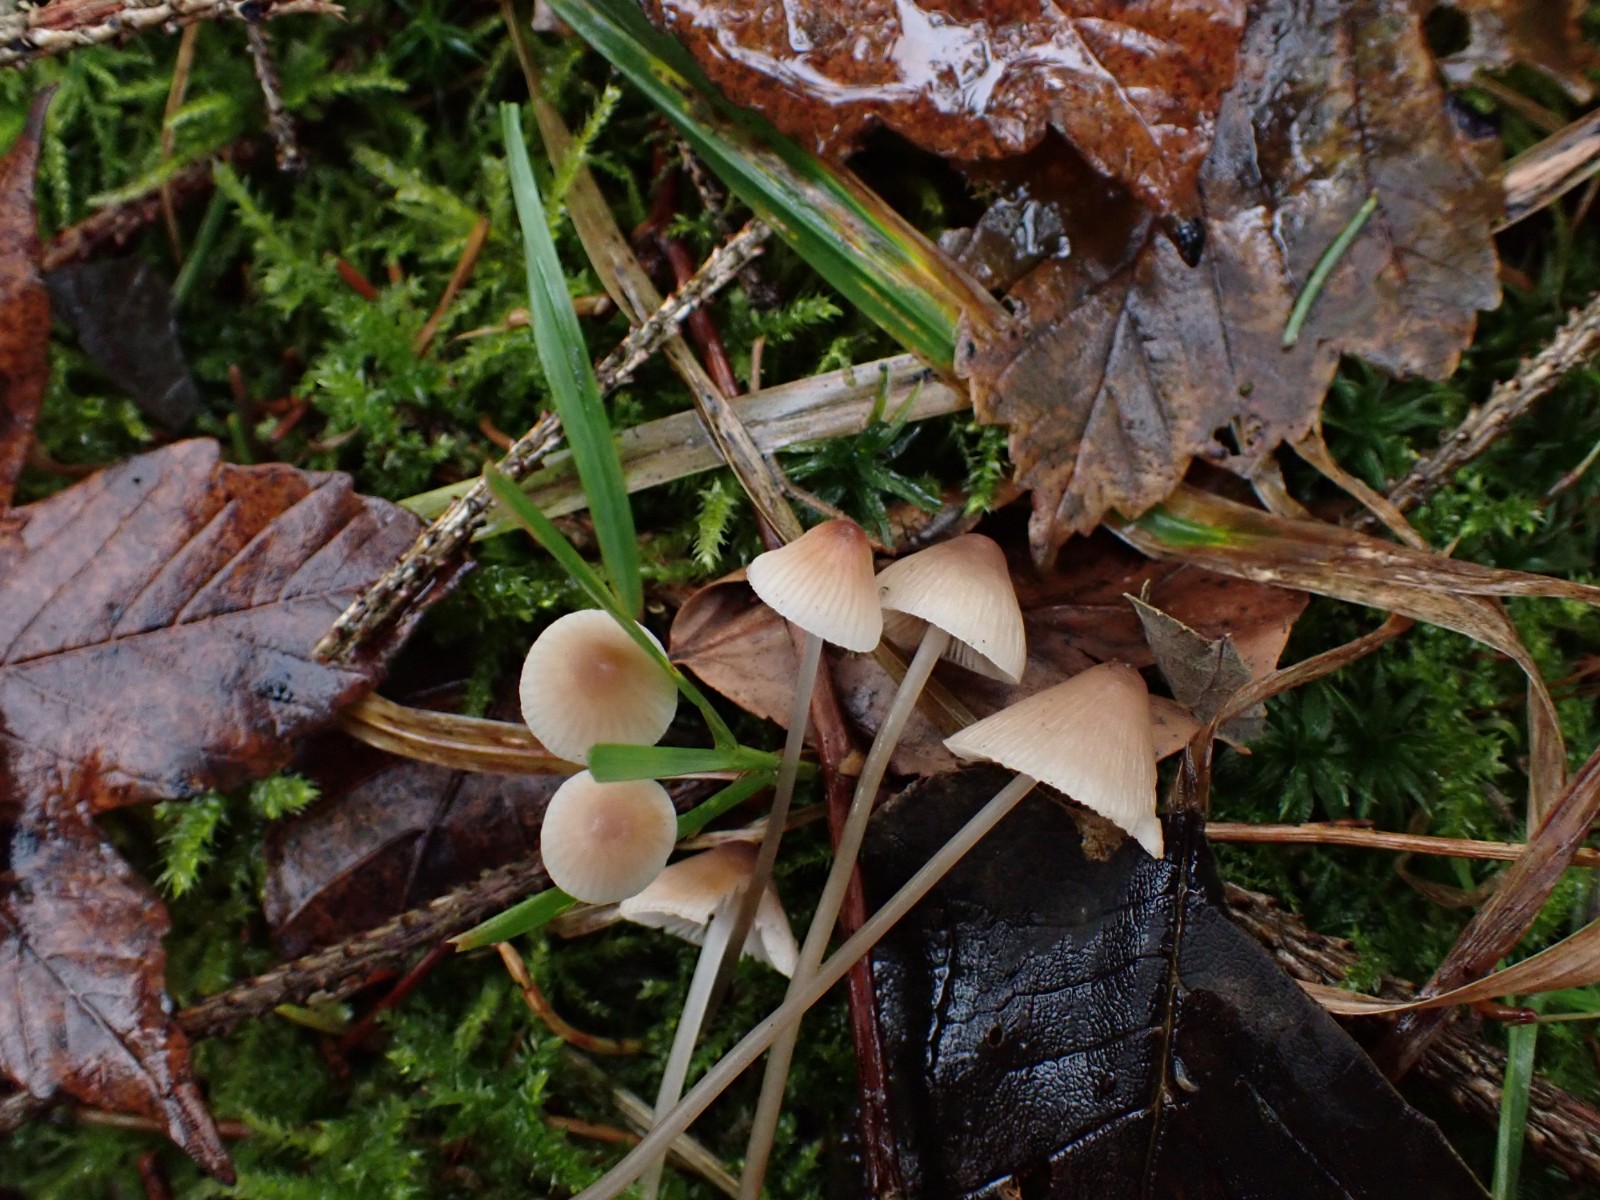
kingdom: Fungi
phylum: Basidiomycota
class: Agaricomycetes
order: Agaricales
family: Mycenaceae
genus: Mycena
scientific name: Mycena metata
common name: rødlig huesvamp
